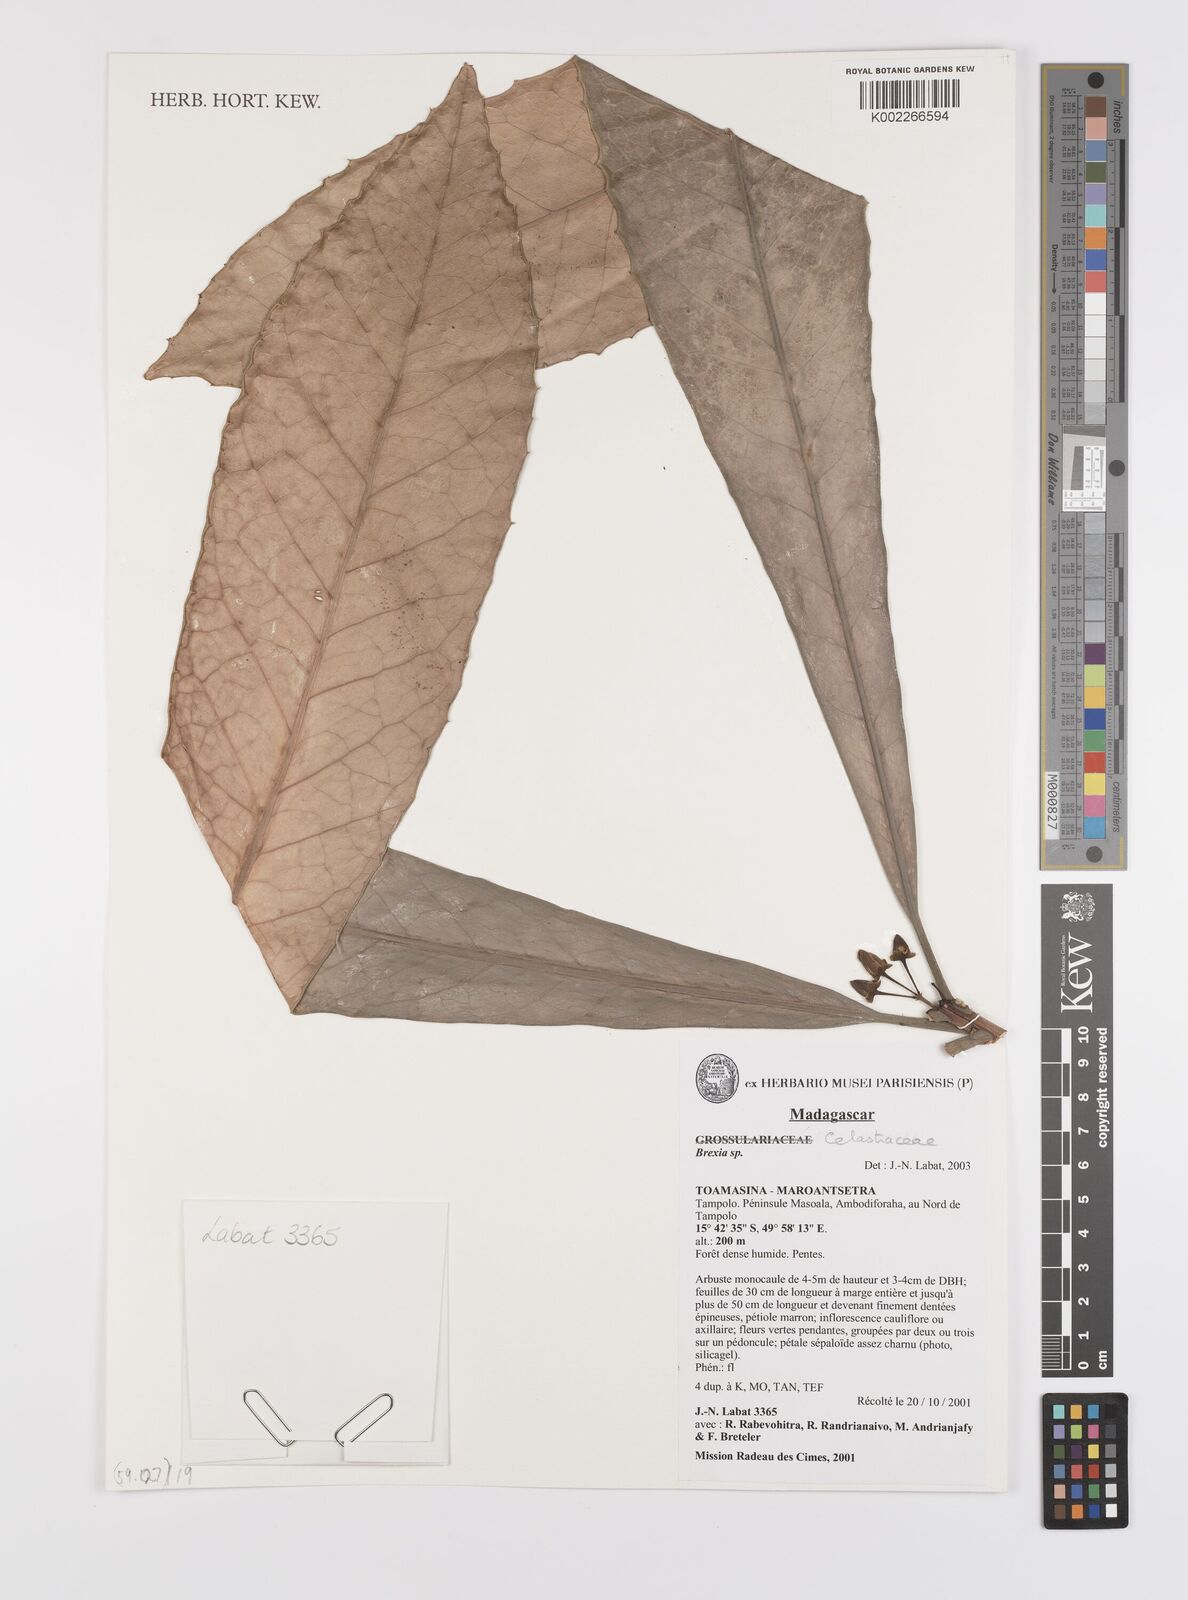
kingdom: Plantae
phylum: Tracheophyta
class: Magnoliopsida
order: Celastrales
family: Celastraceae
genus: Brexia
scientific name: Brexia
